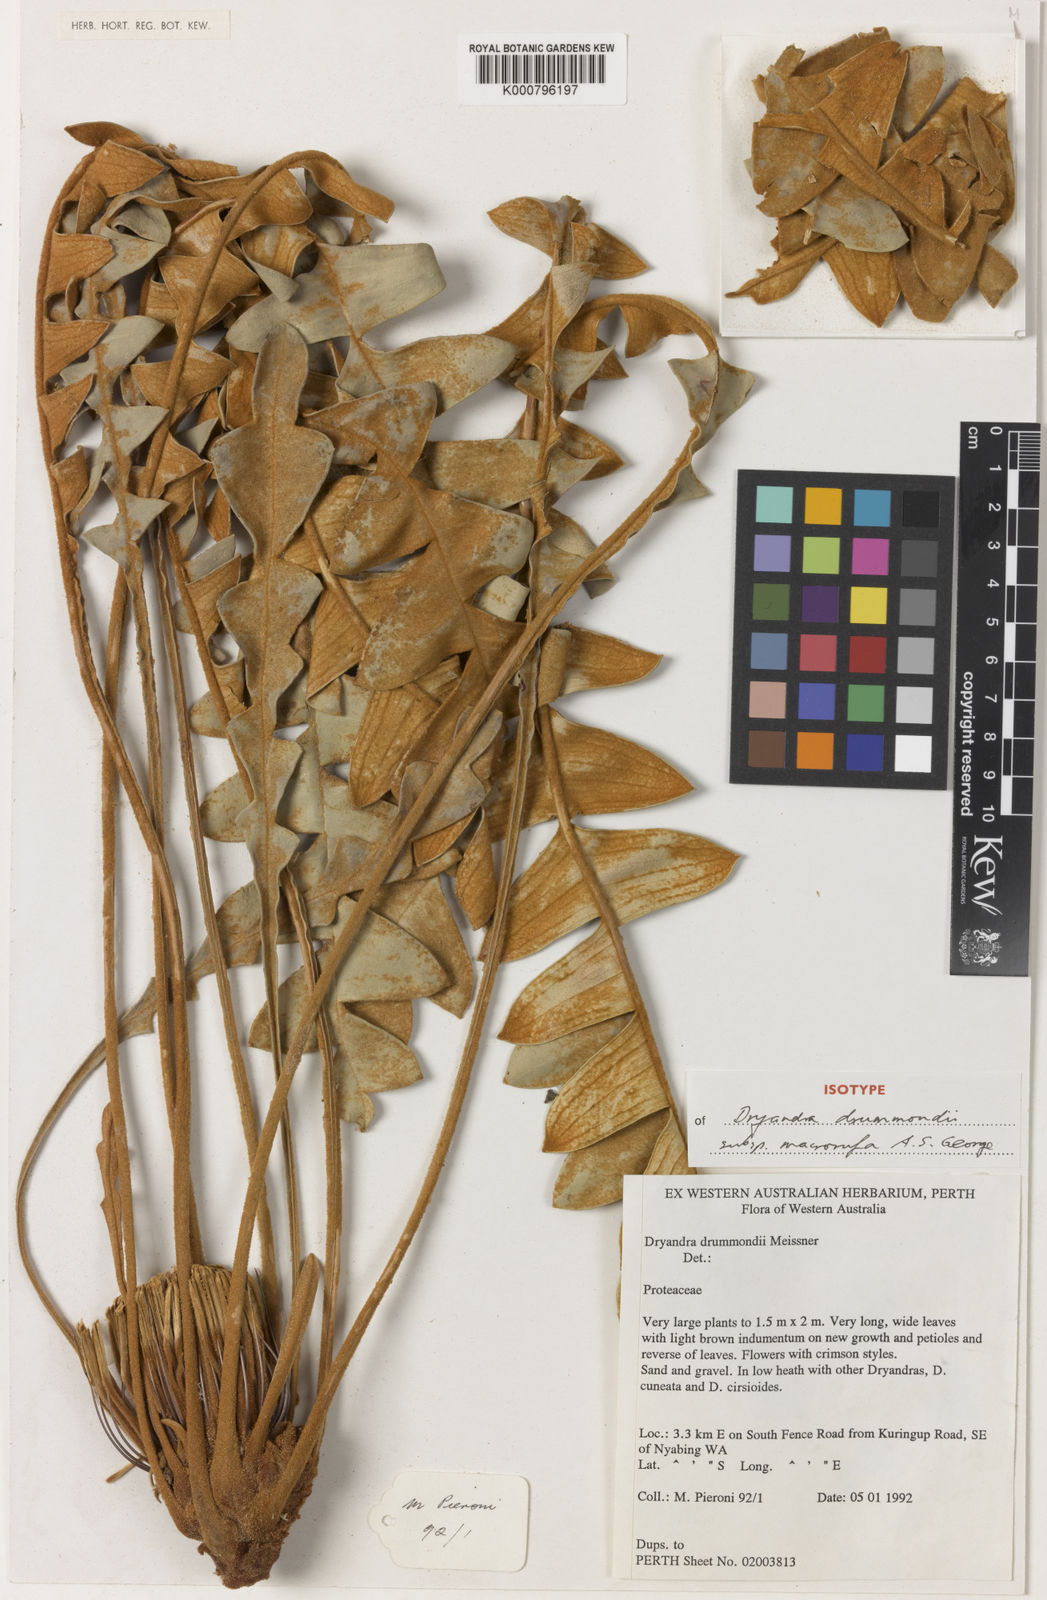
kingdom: Plantae
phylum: Tracheophyta
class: Magnoliopsida
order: Proteales
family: Proteaceae
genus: Banksia
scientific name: Banksia drummondii
